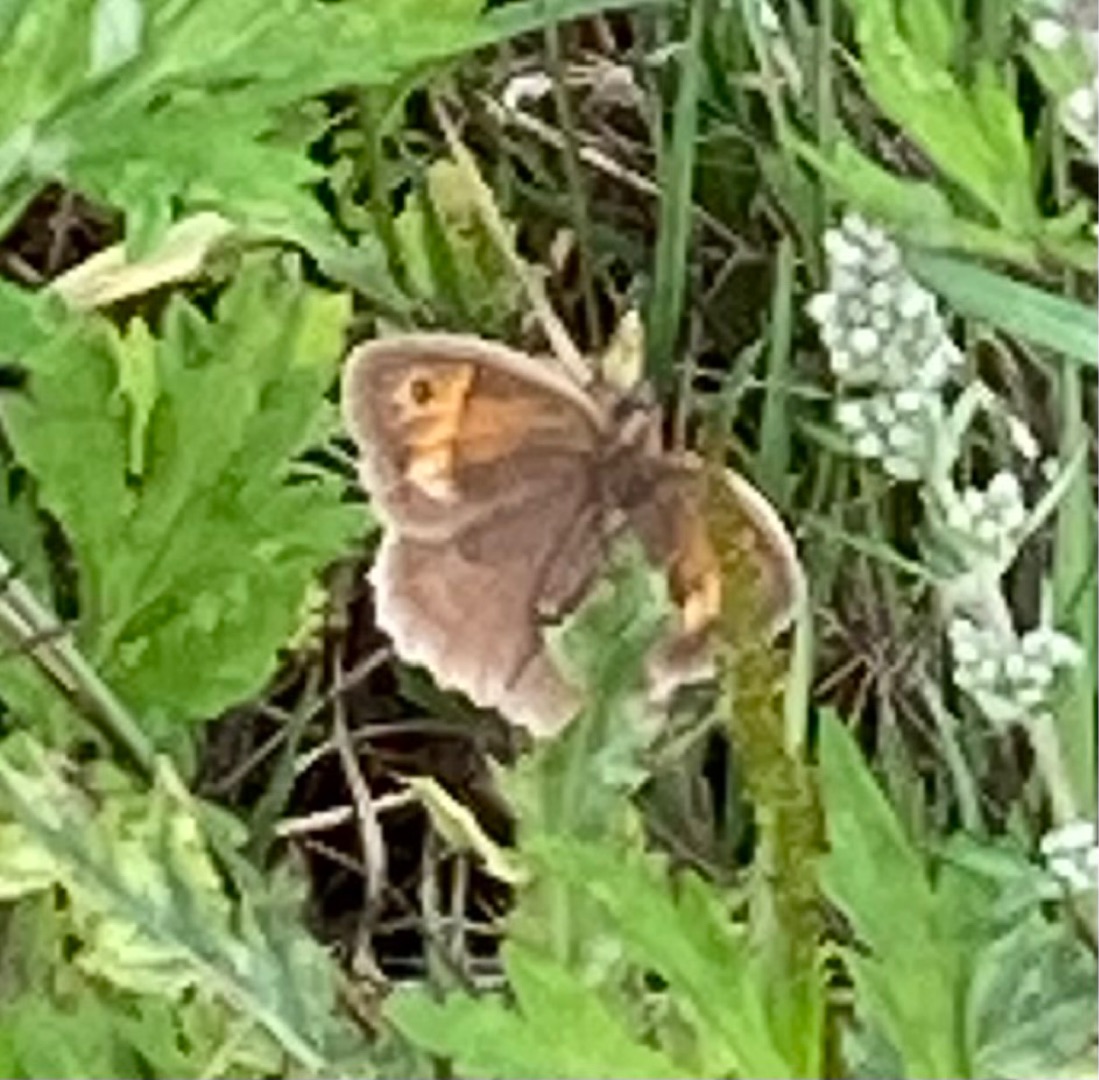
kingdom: Animalia
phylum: Arthropoda
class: Insecta
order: Lepidoptera
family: Nymphalidae
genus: Maniola
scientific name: Maniola jurtina
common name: Græsrandøje
